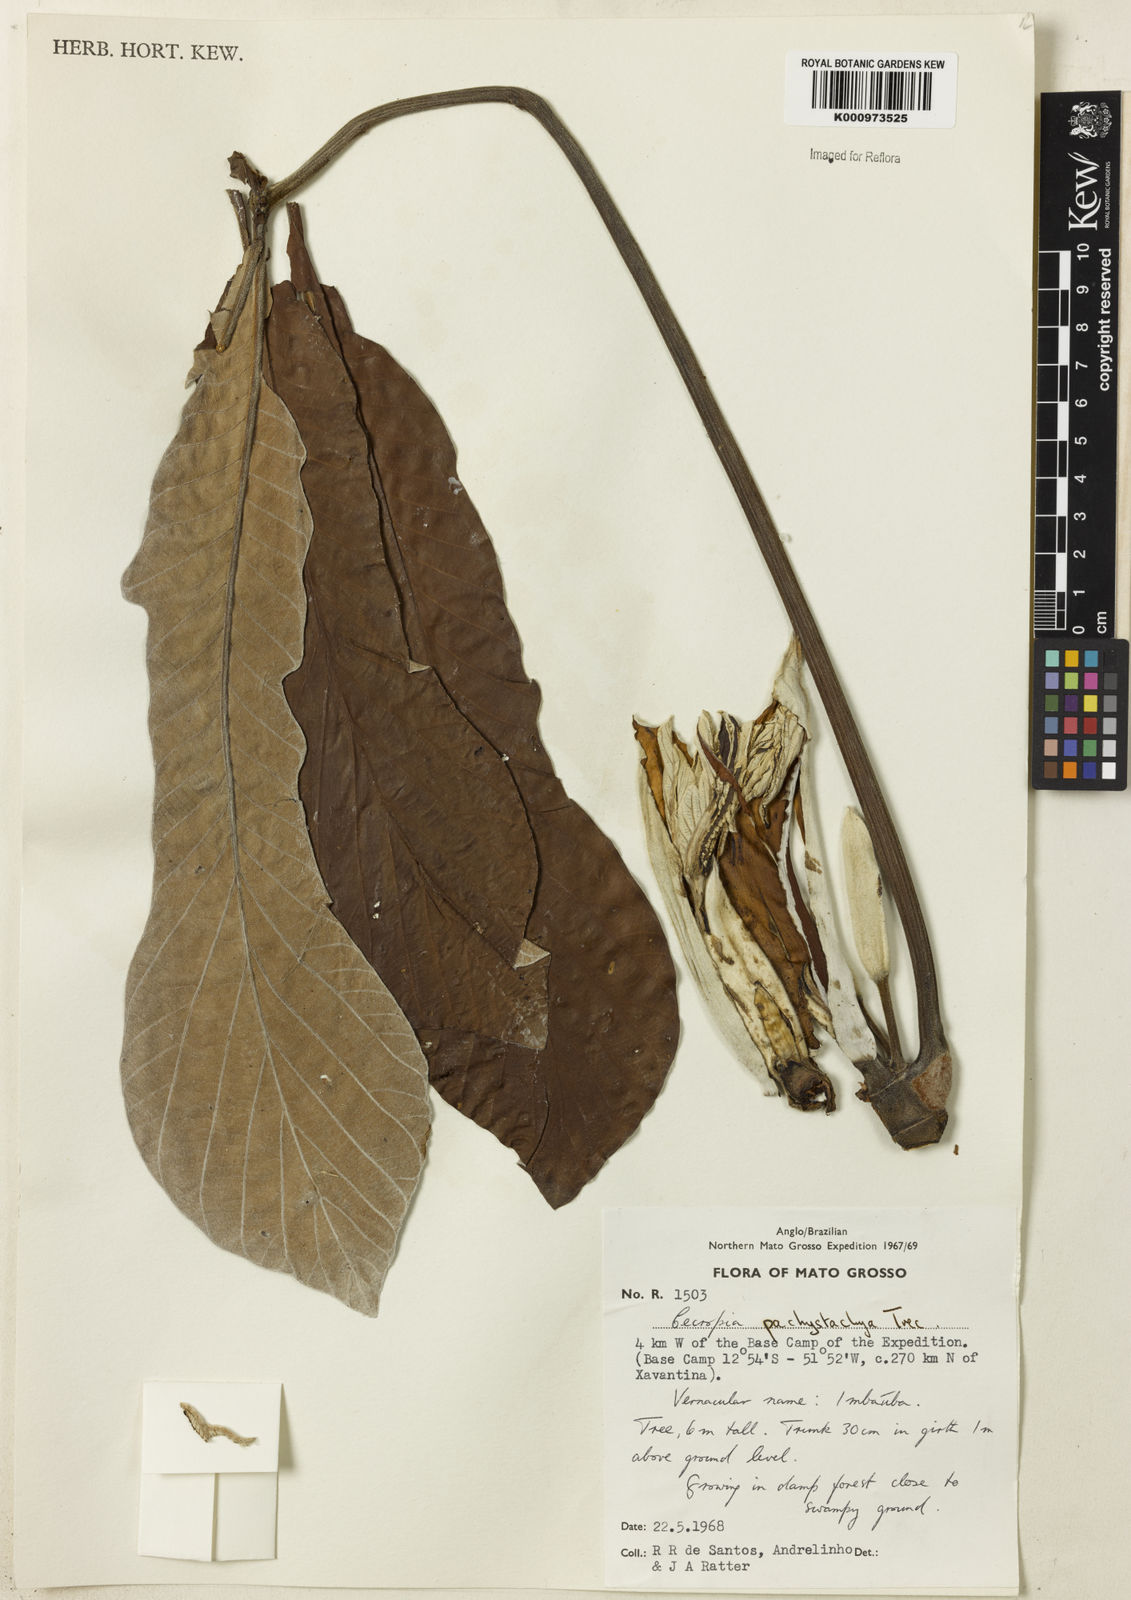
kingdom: Plantae
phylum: Tracheophyta
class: Magnoliopsida
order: Rosales
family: Urticaceae
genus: Cecropia
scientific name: Cecropia
